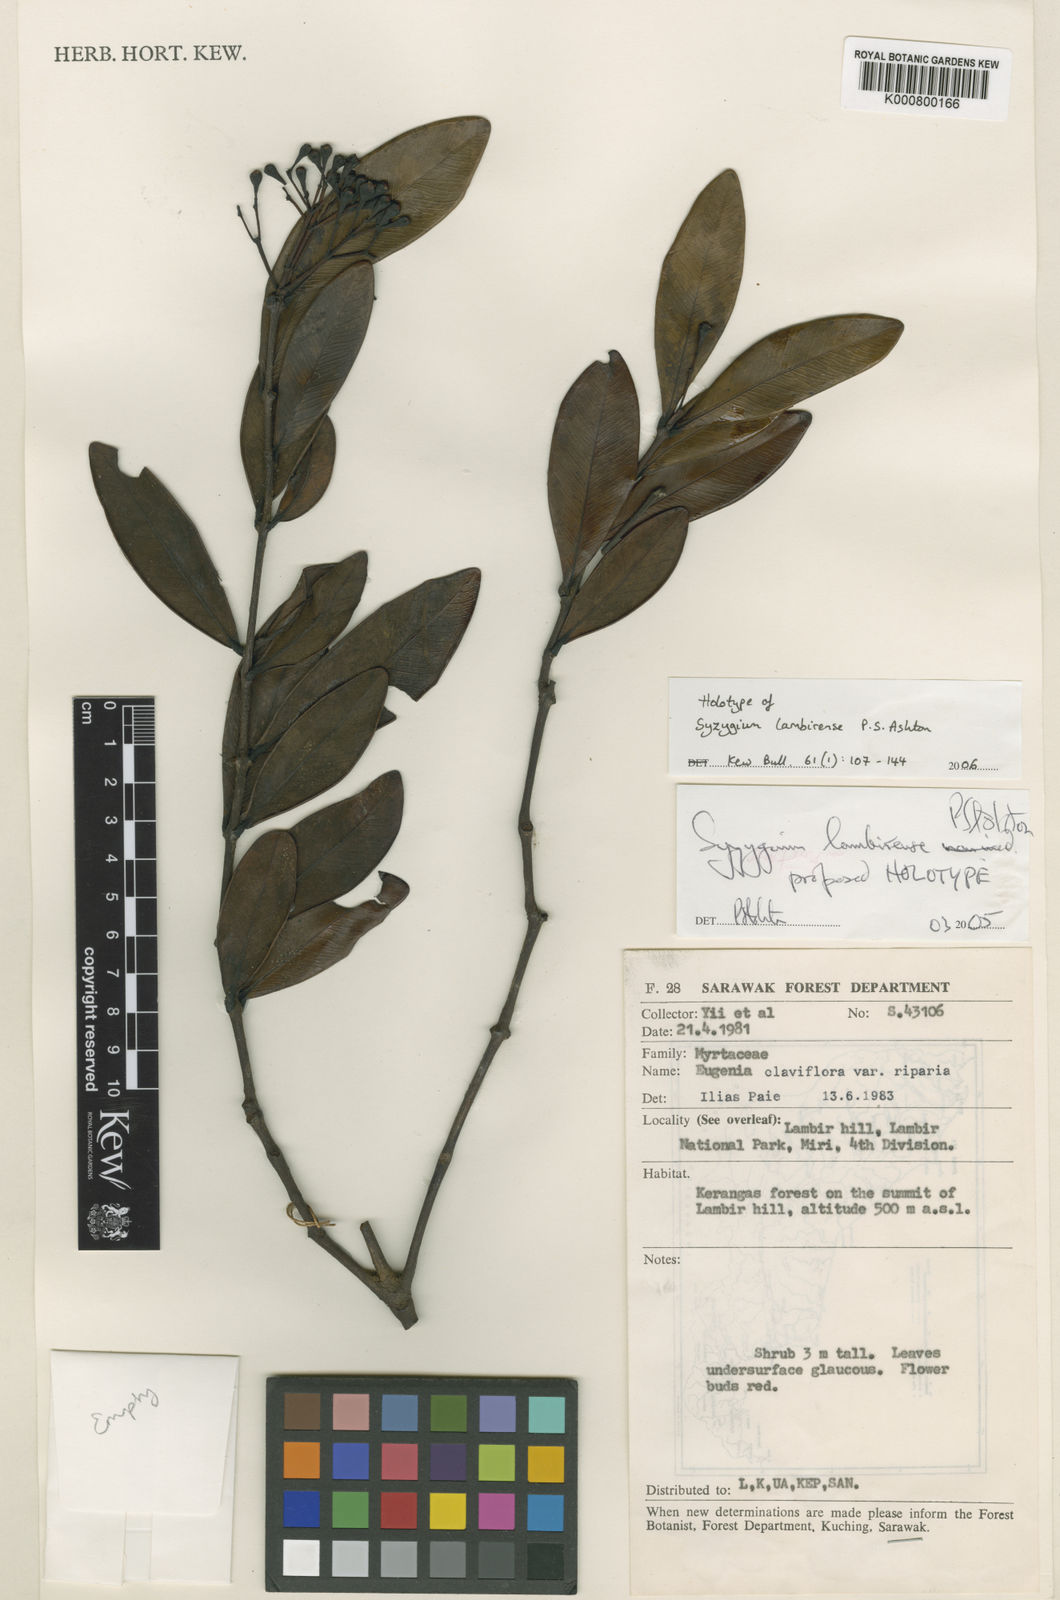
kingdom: Plantae
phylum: Tracheophyta
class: Magnoliopsida
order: Myrtales
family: Myrtaceae
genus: Syzygium
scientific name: Syzygium lambirense
